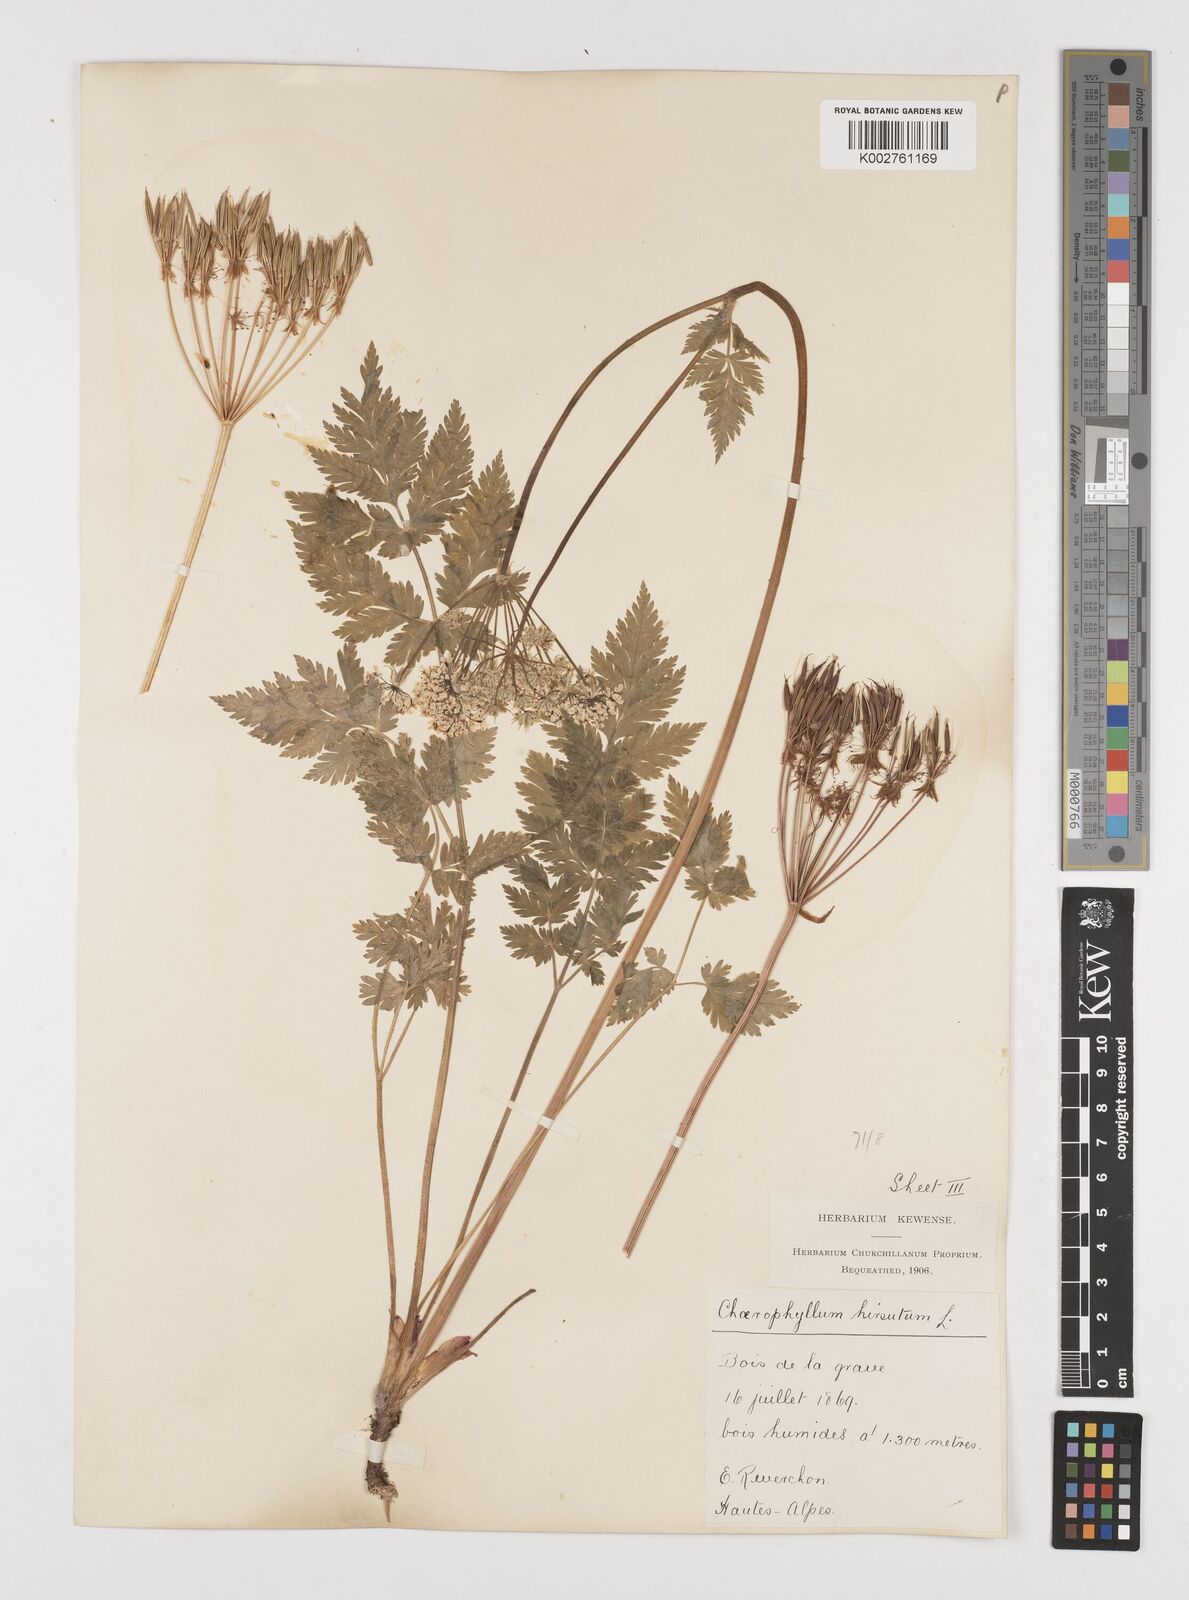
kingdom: Plantae
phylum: Tracheophyta
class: Magnoliopsida
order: Apiales
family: Apiaceae
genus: Chaerophyllum
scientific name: Chaerophyllum hirsutum
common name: Hairy chervil
